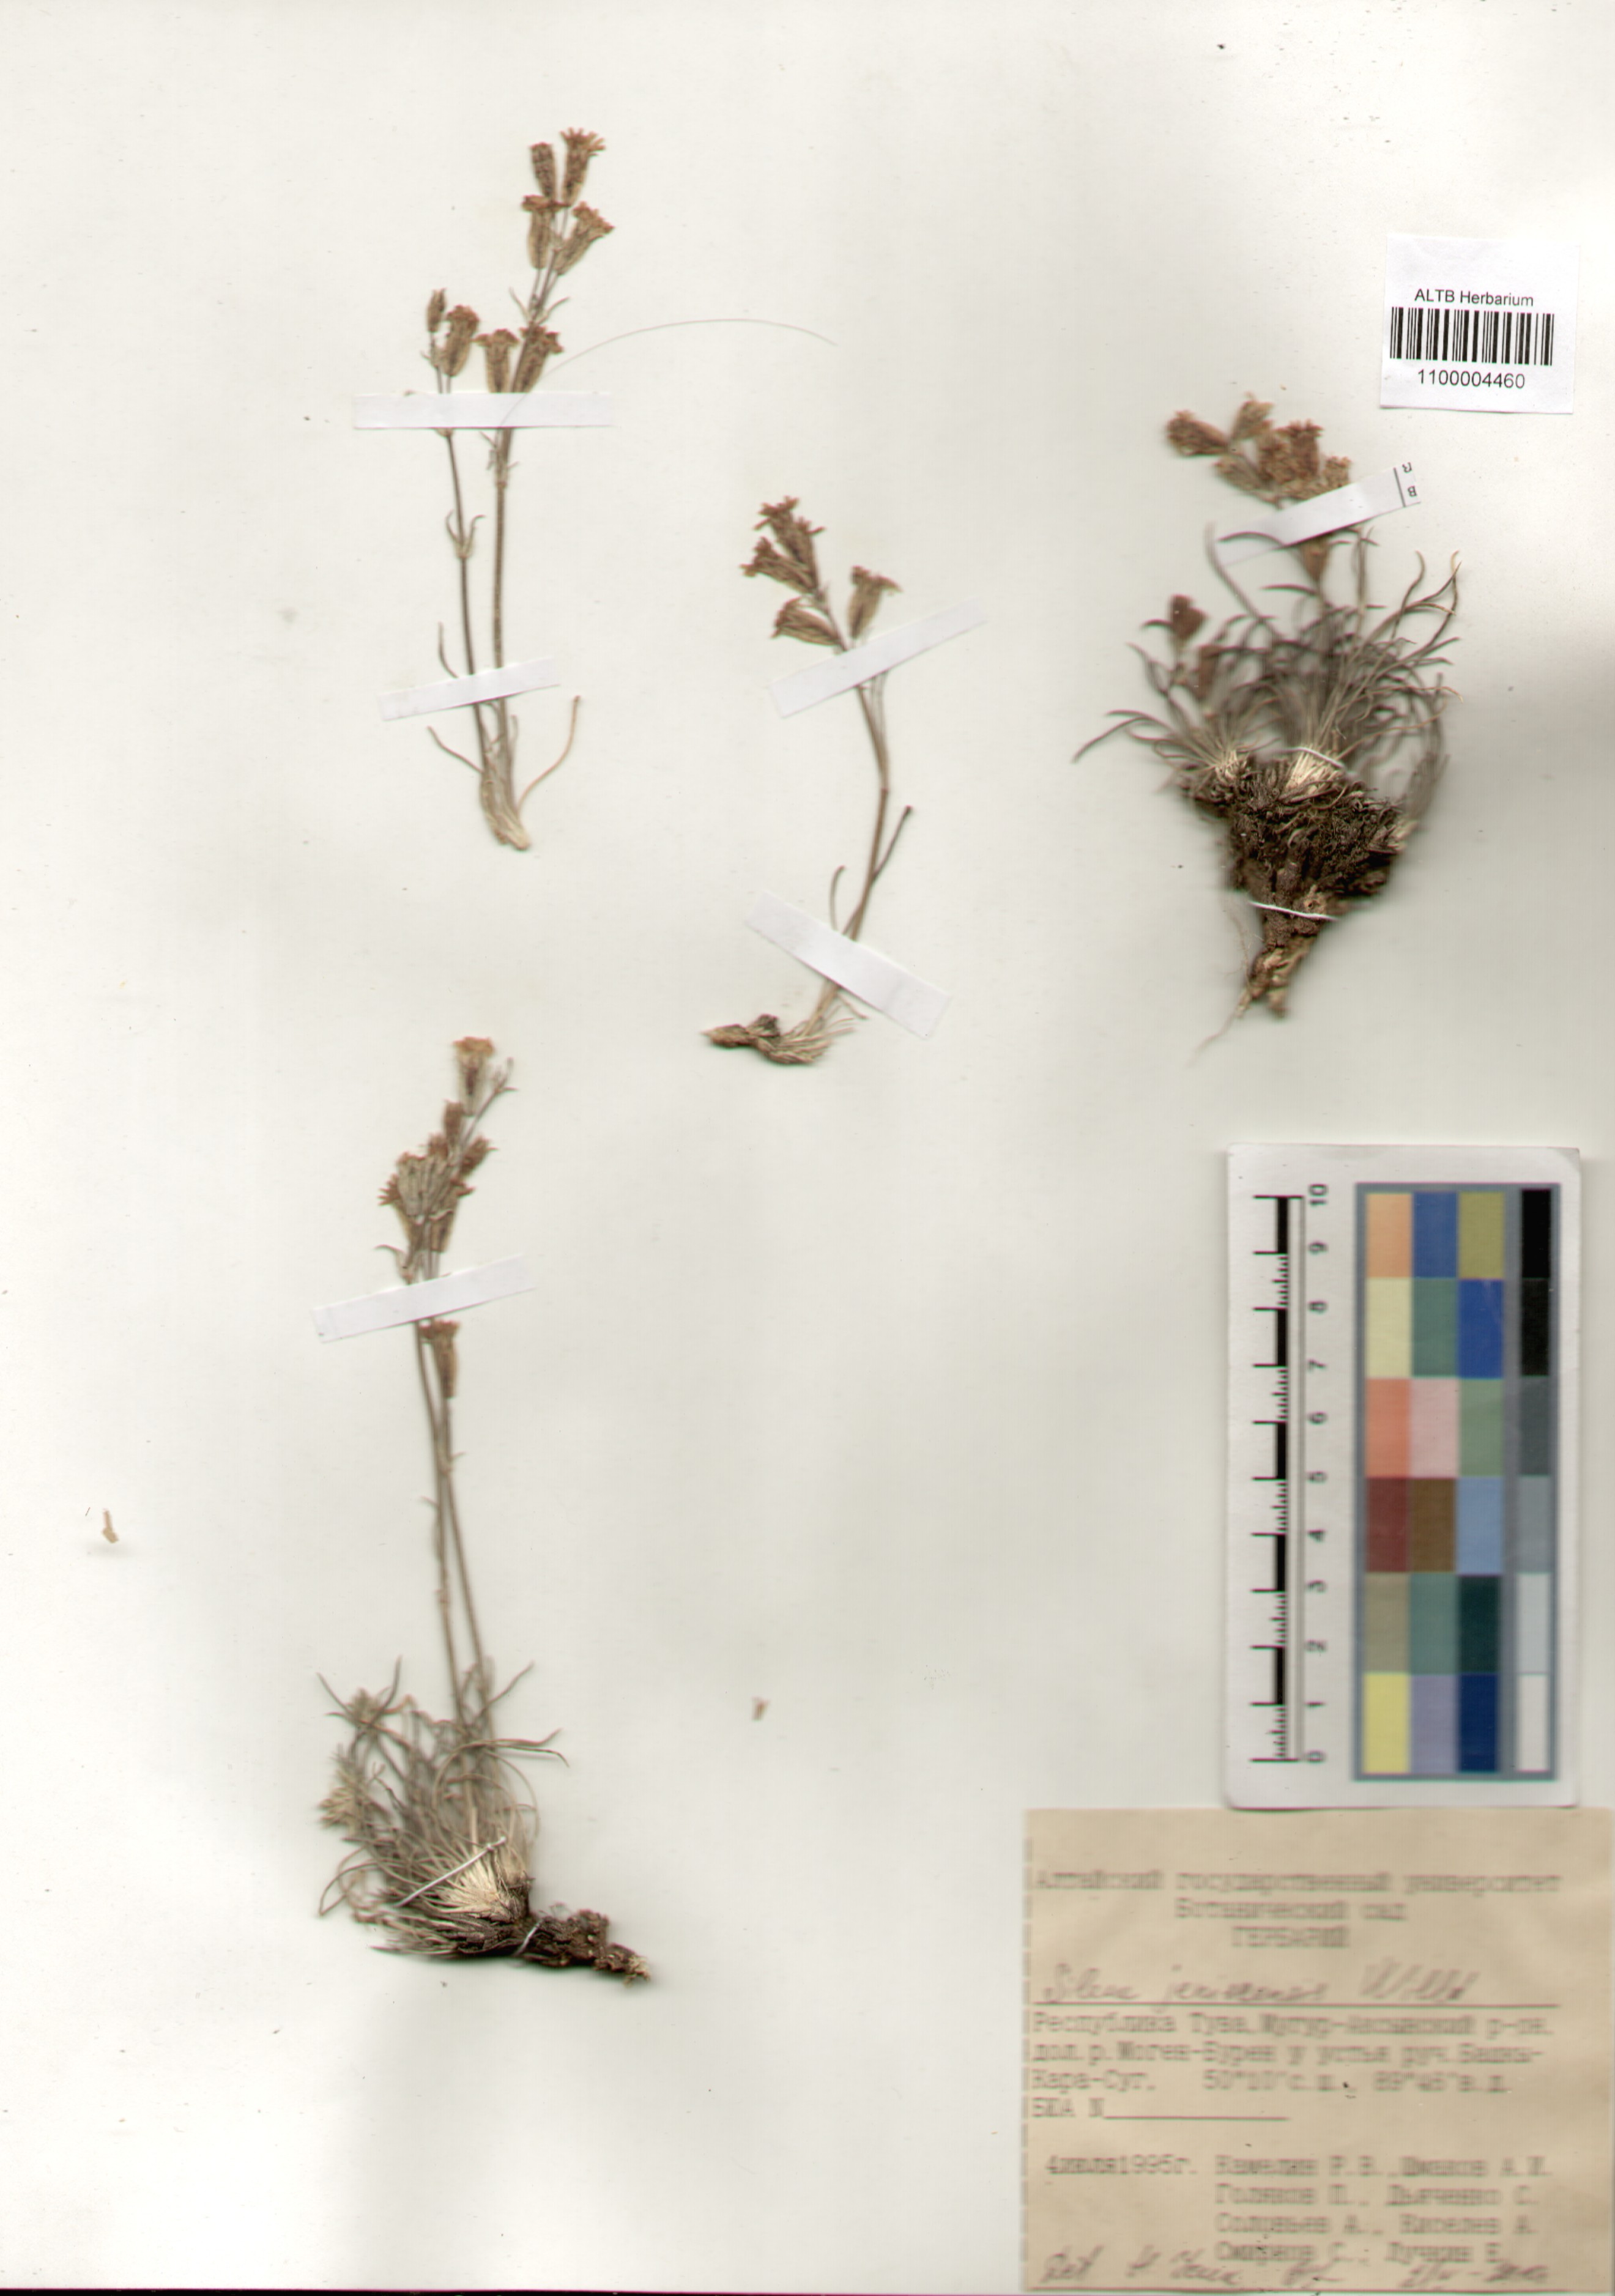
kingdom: Plantae
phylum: Tracheophyta
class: Magnoliopsida
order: Caryophyllales
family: Caryophyllaceae
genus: Silene
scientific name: Silene jeniseensis
